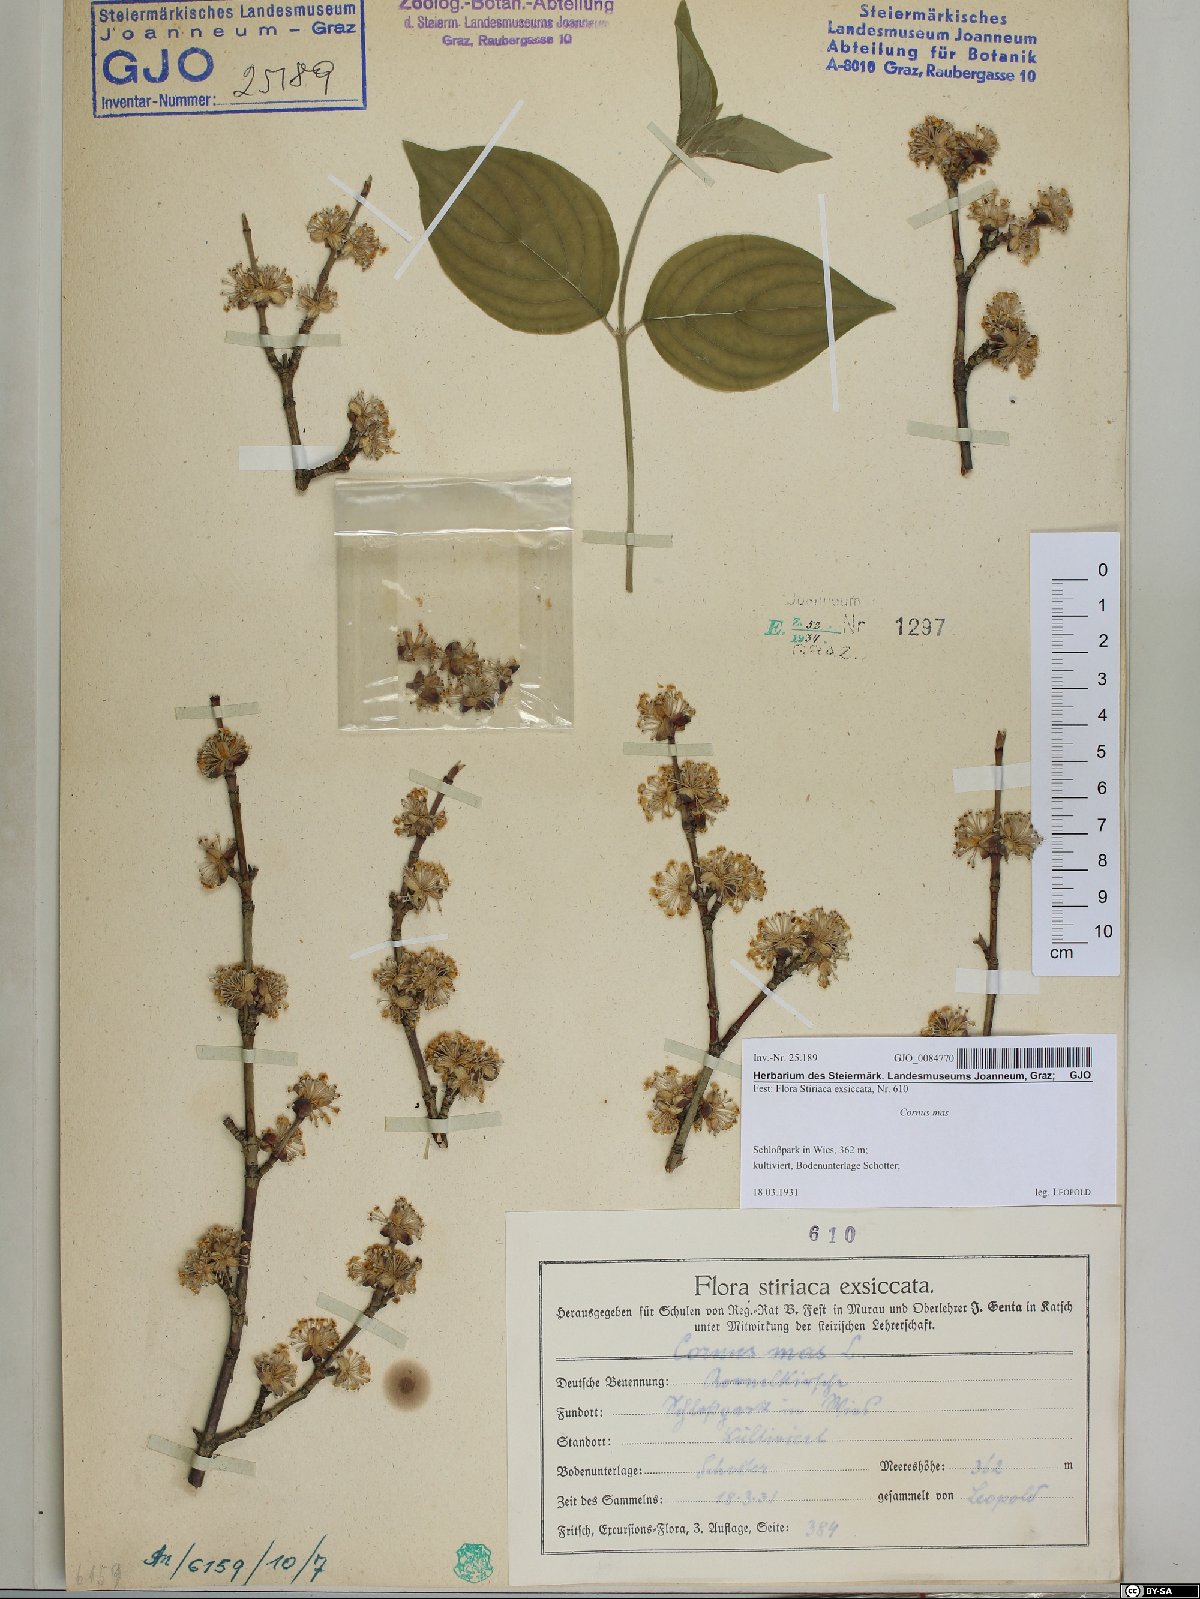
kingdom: Plantae
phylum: Tracheophyta
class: Magnoliopsida
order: Cornales
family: Cornaceae
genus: Cornus
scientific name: Cornus mas
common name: Cornelian-cherry
